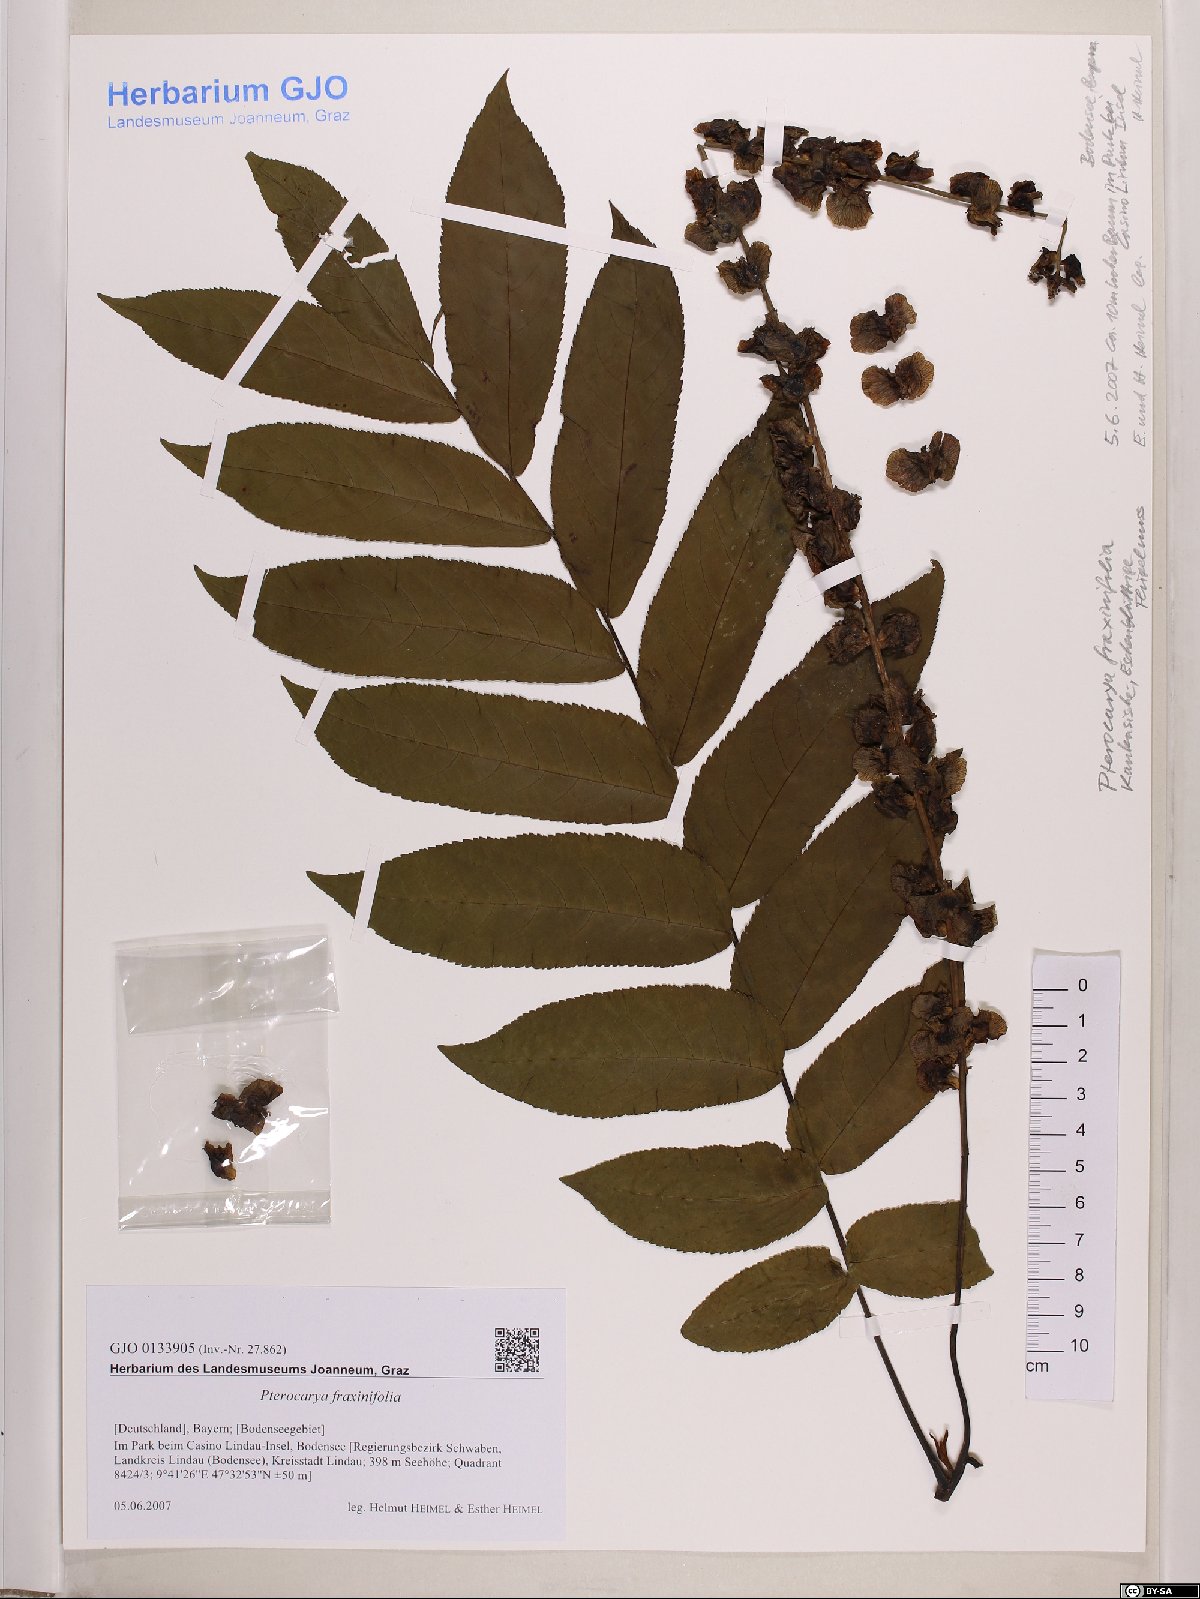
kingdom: Plantae
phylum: Tracheophyta
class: Magnoliopsida
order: Fagales
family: Juglandaceae
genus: Pterocarya
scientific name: Pterocarya fraxinifolia
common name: Caucasian wingnut
